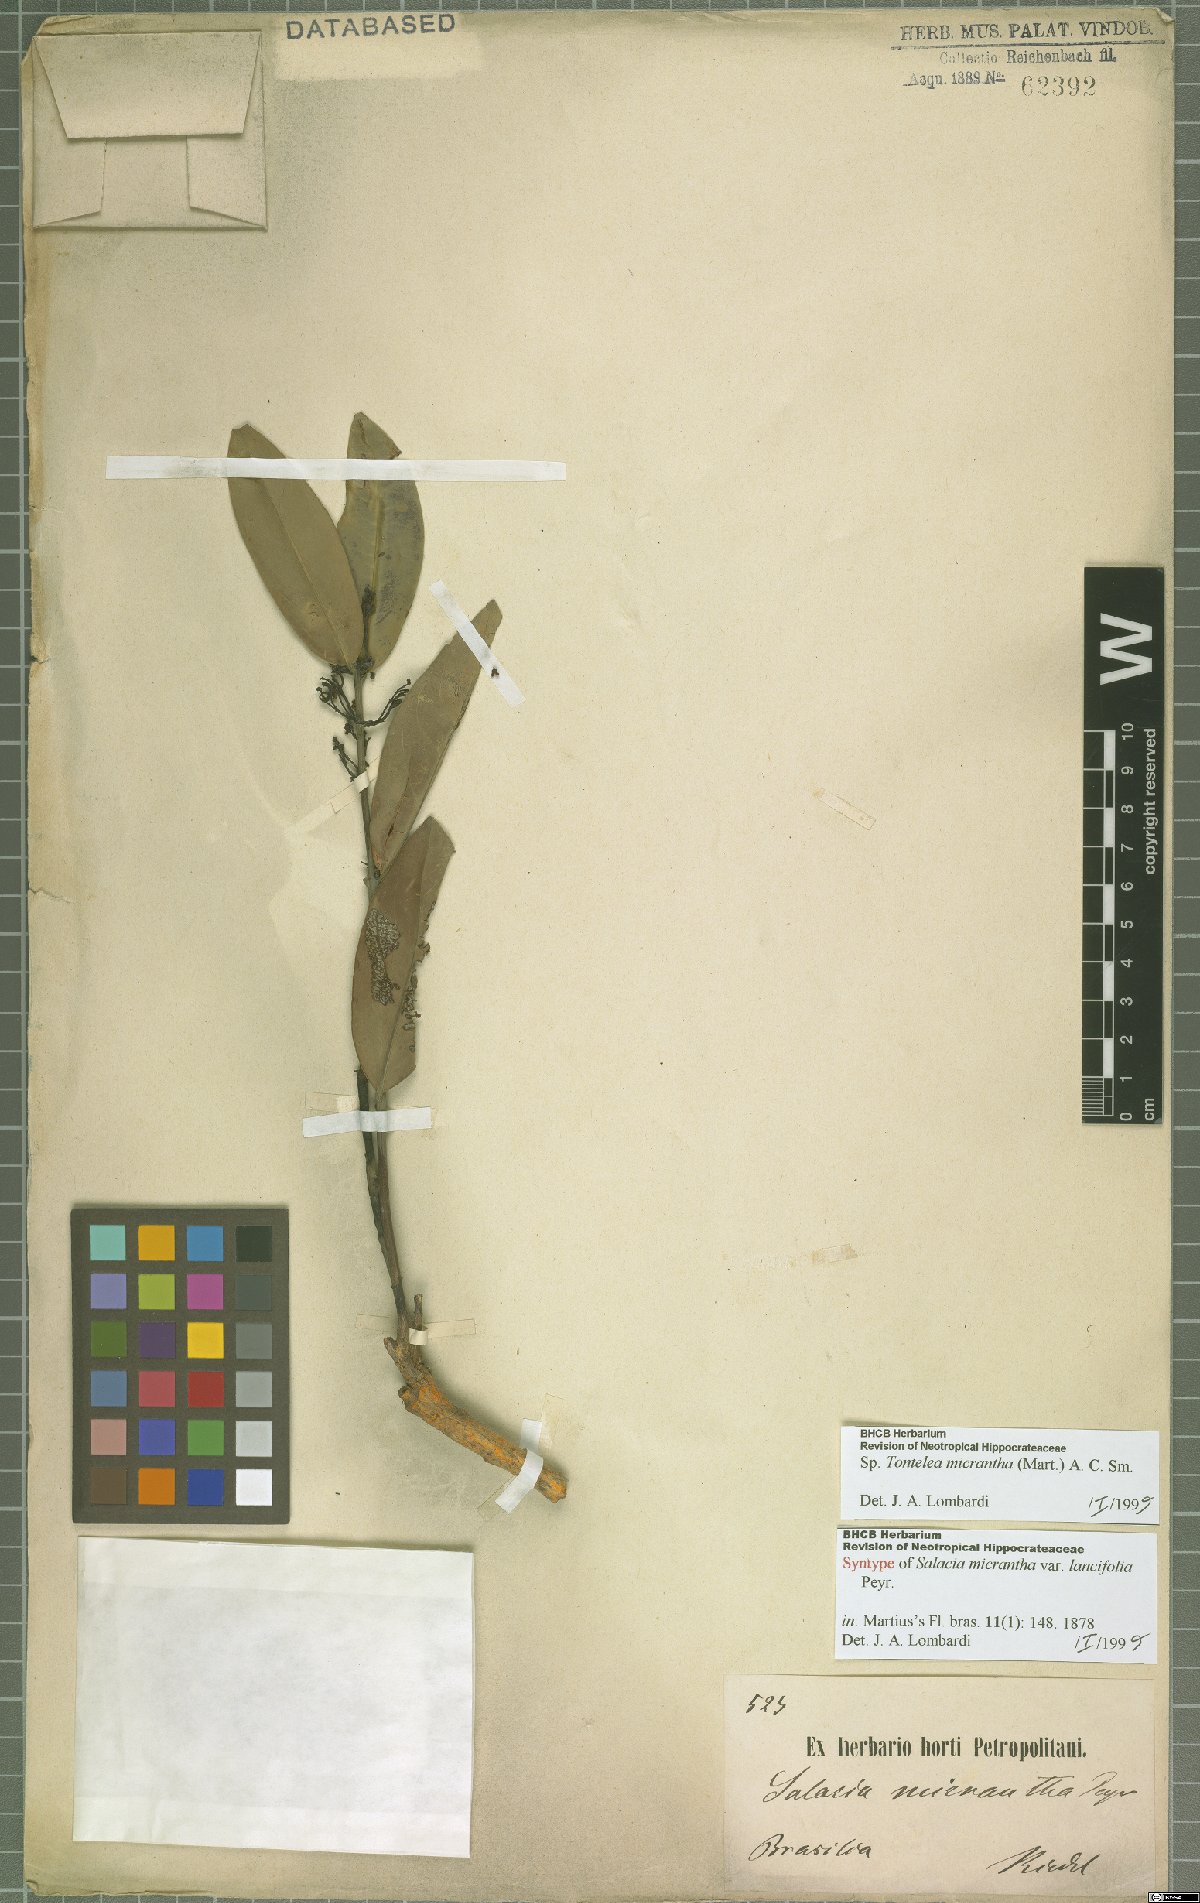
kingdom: Plantae
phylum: Tracheophyta
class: Magnoliopsida
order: Celastrales
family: Celastraceae
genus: Tontelea
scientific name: Tontelea micrantha
